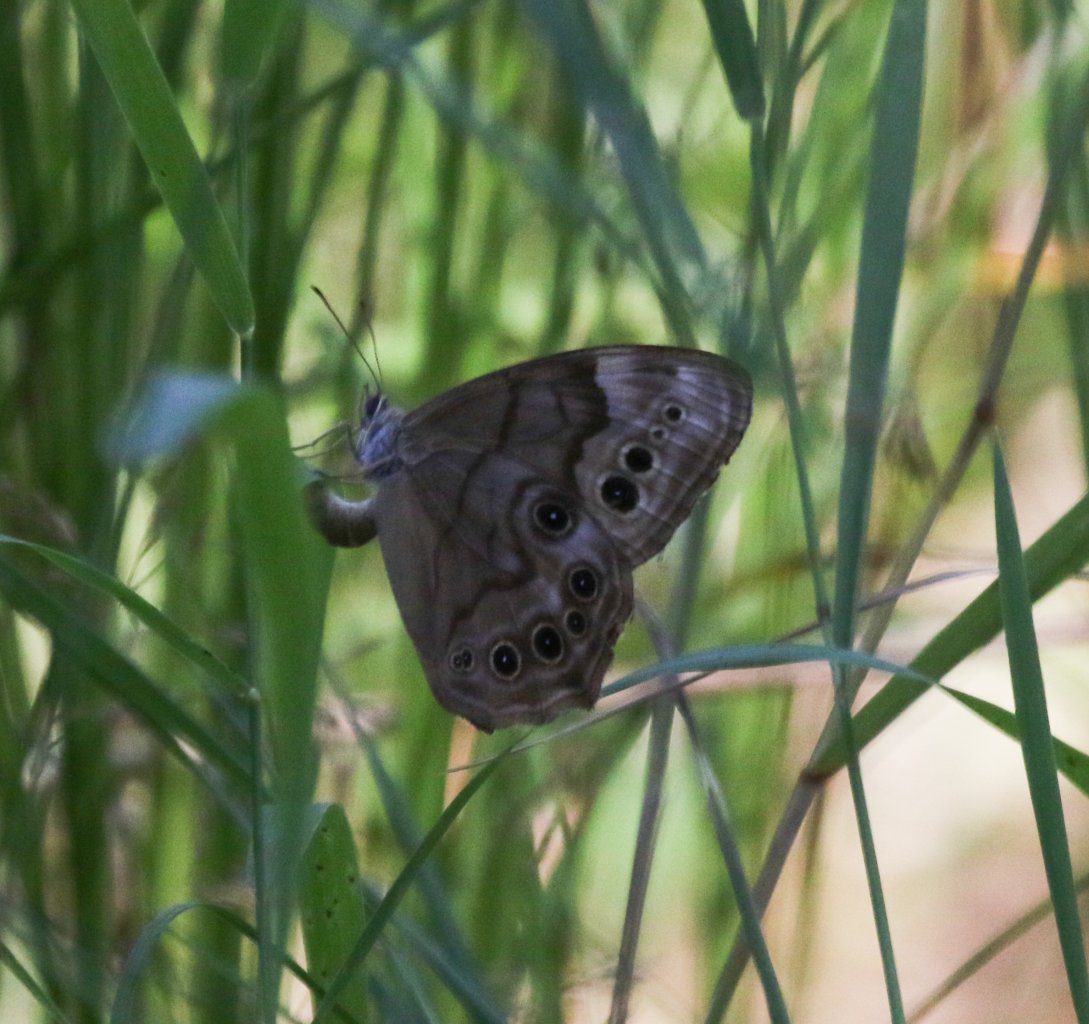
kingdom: Animalia
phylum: Arthropoda
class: Insecta
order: Lepidoptera
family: Nymphalidae
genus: Lethe
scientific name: Lethe anthedon
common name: Northern Pearly-Eye
